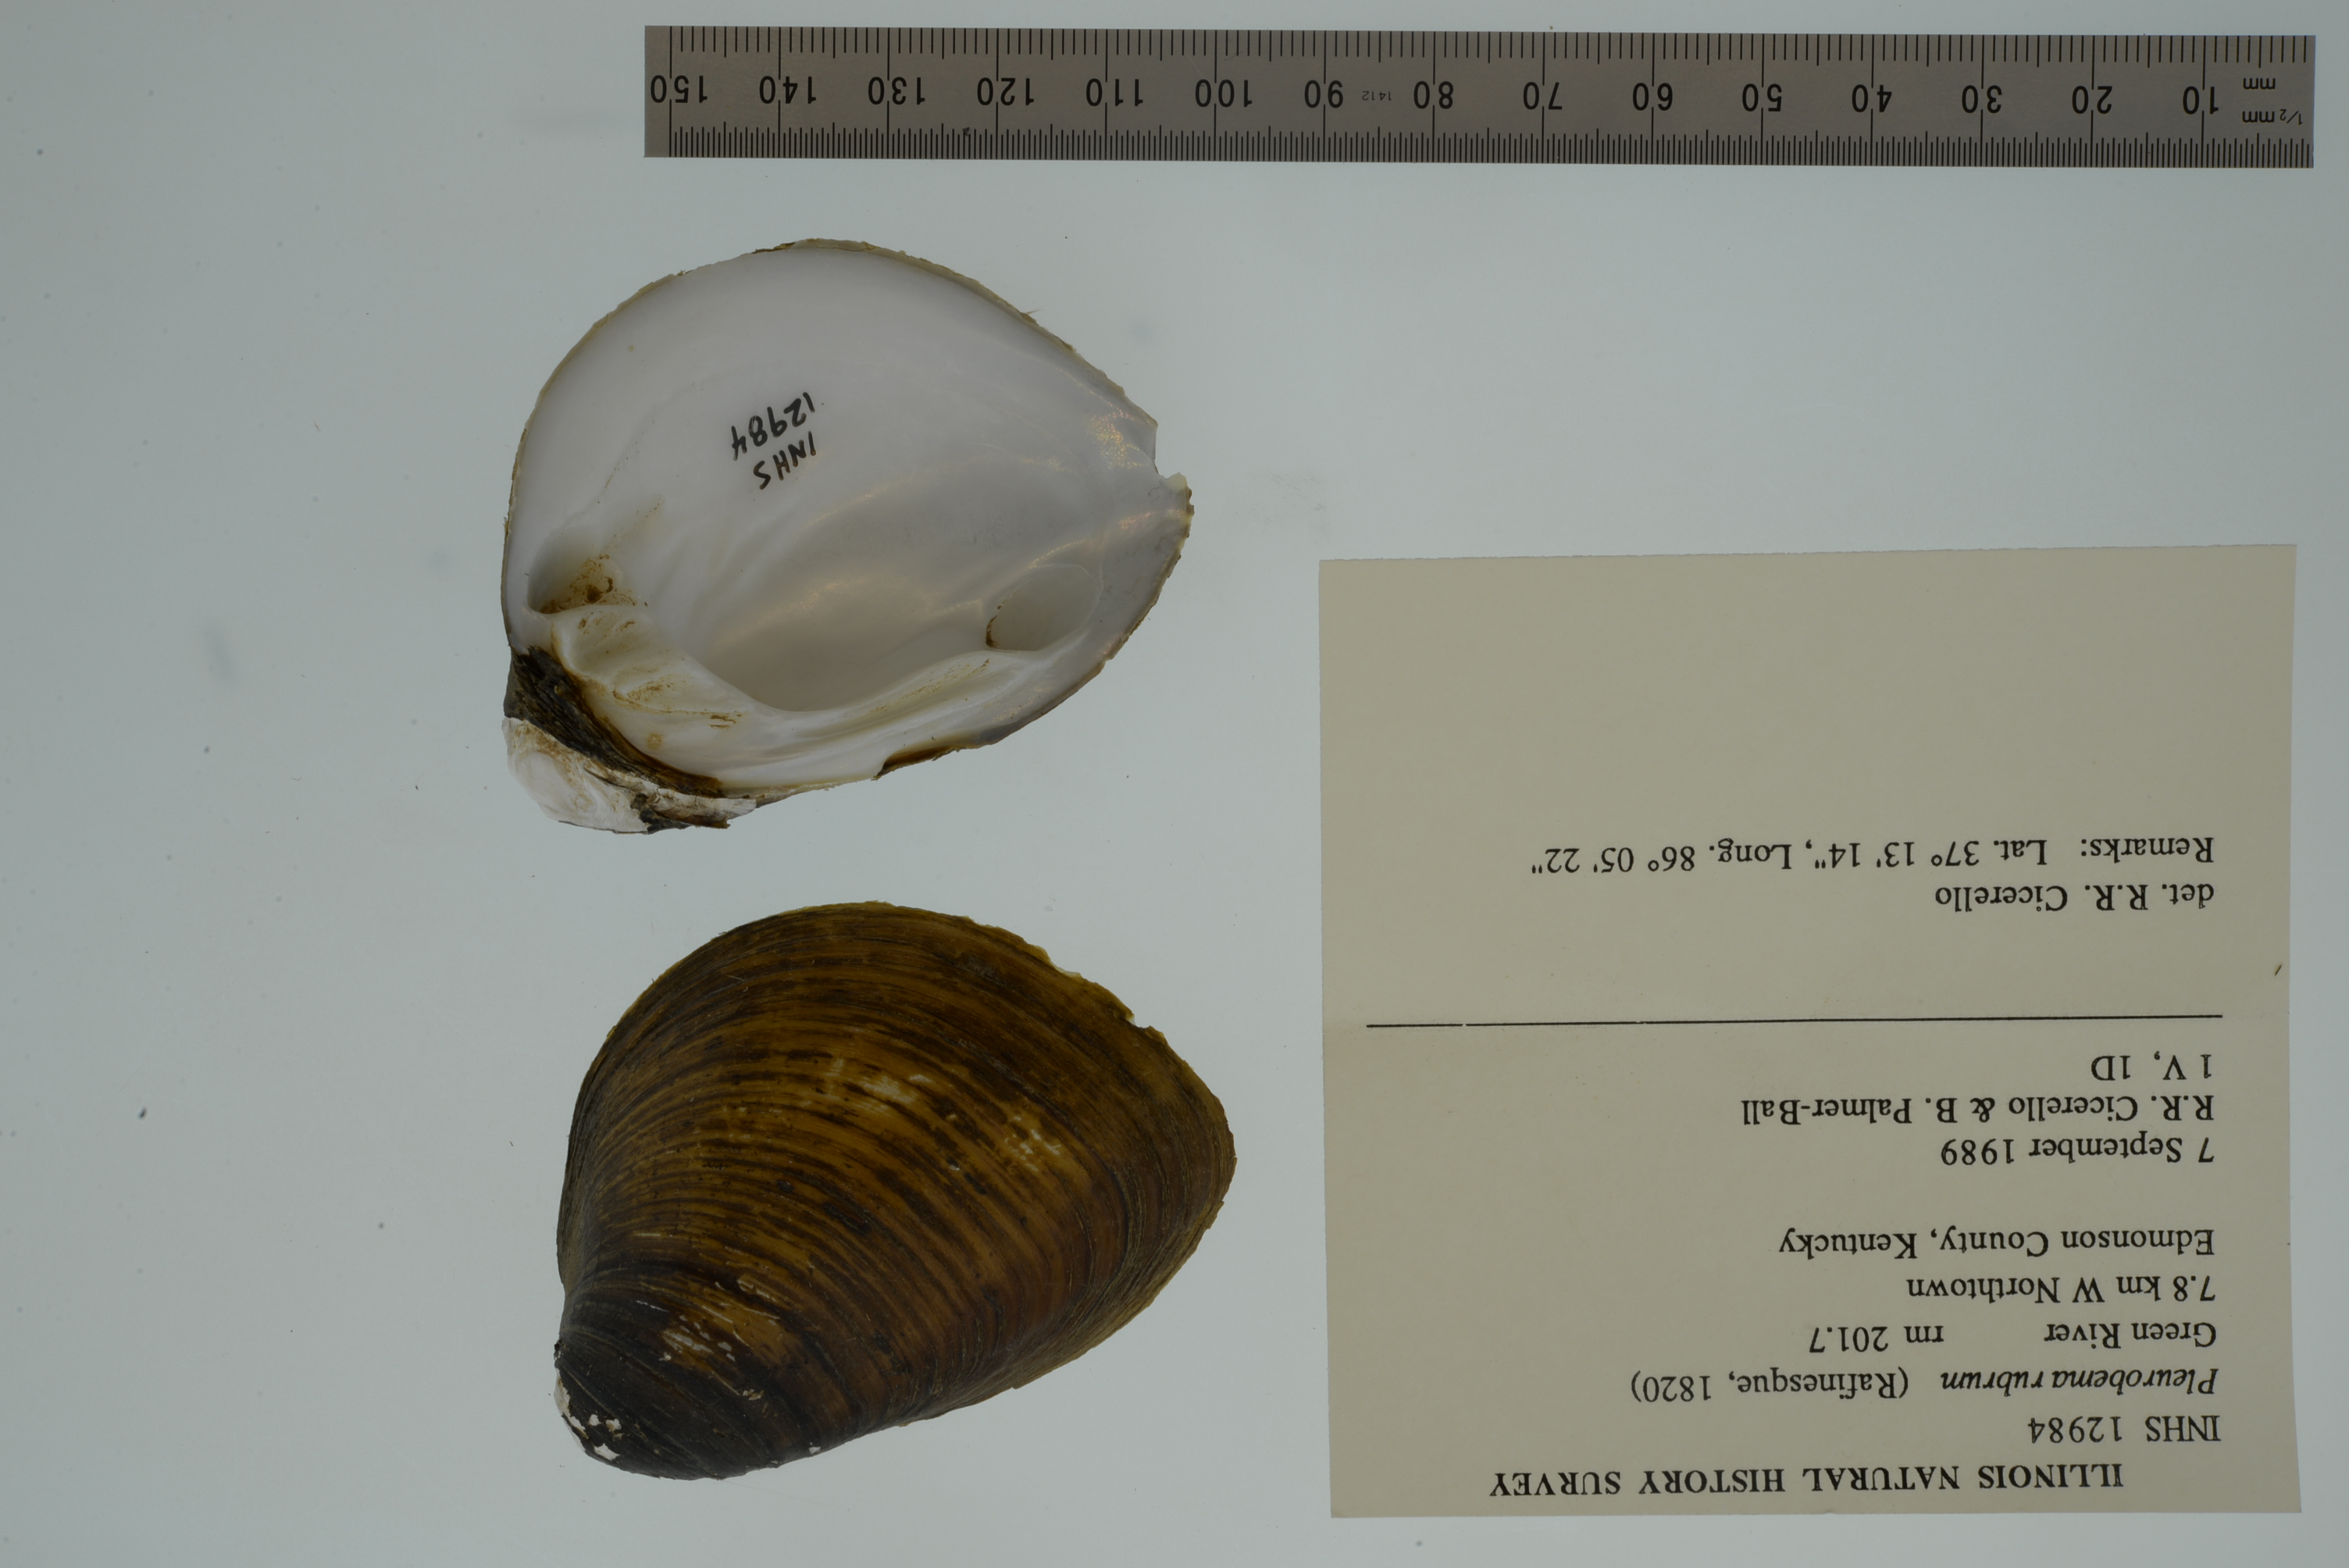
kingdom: Animalia
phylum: Mollusca
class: Bivalvia
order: Unionida
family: Unionidae
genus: Pleurobema
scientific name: Pleurobema rubrum
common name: Pyramid pigtoe
